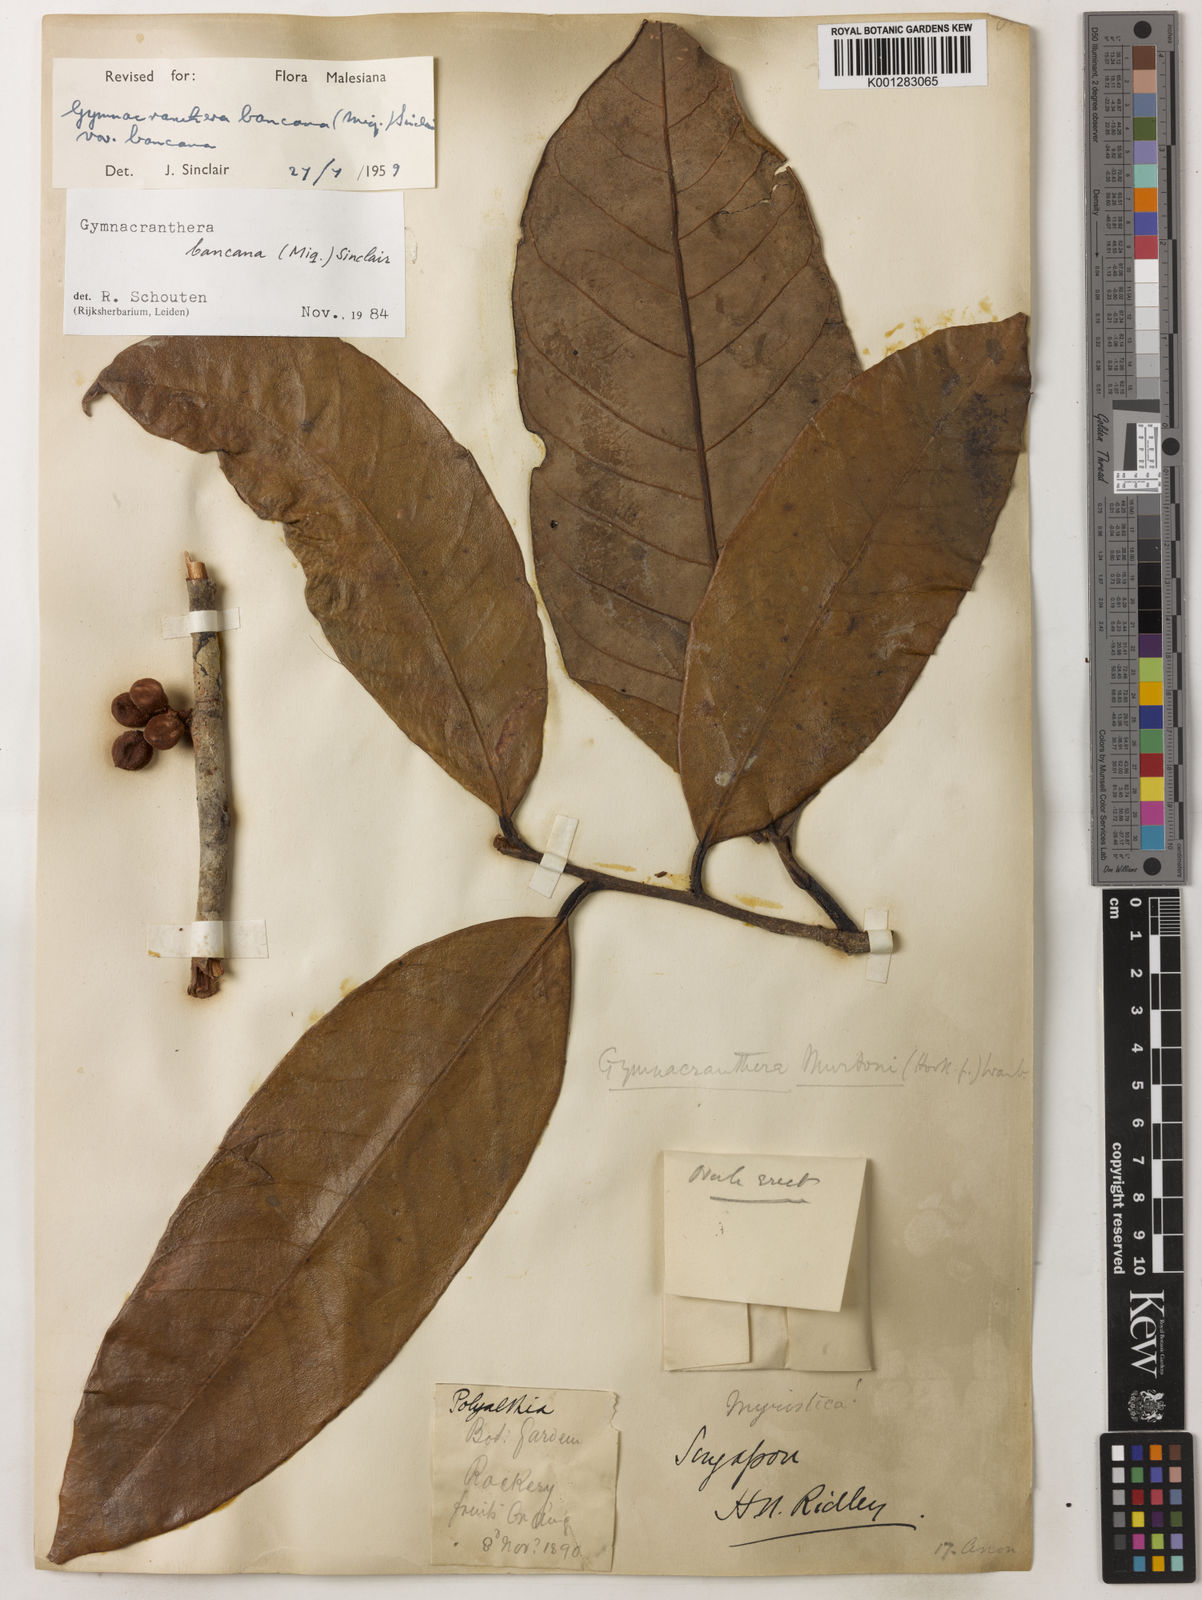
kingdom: Plantae
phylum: Tracheophyta
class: Magnoliopsida
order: Magnoliales
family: Myristicaceae
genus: Gymnacranthera
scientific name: Gymnacranthera bancana
